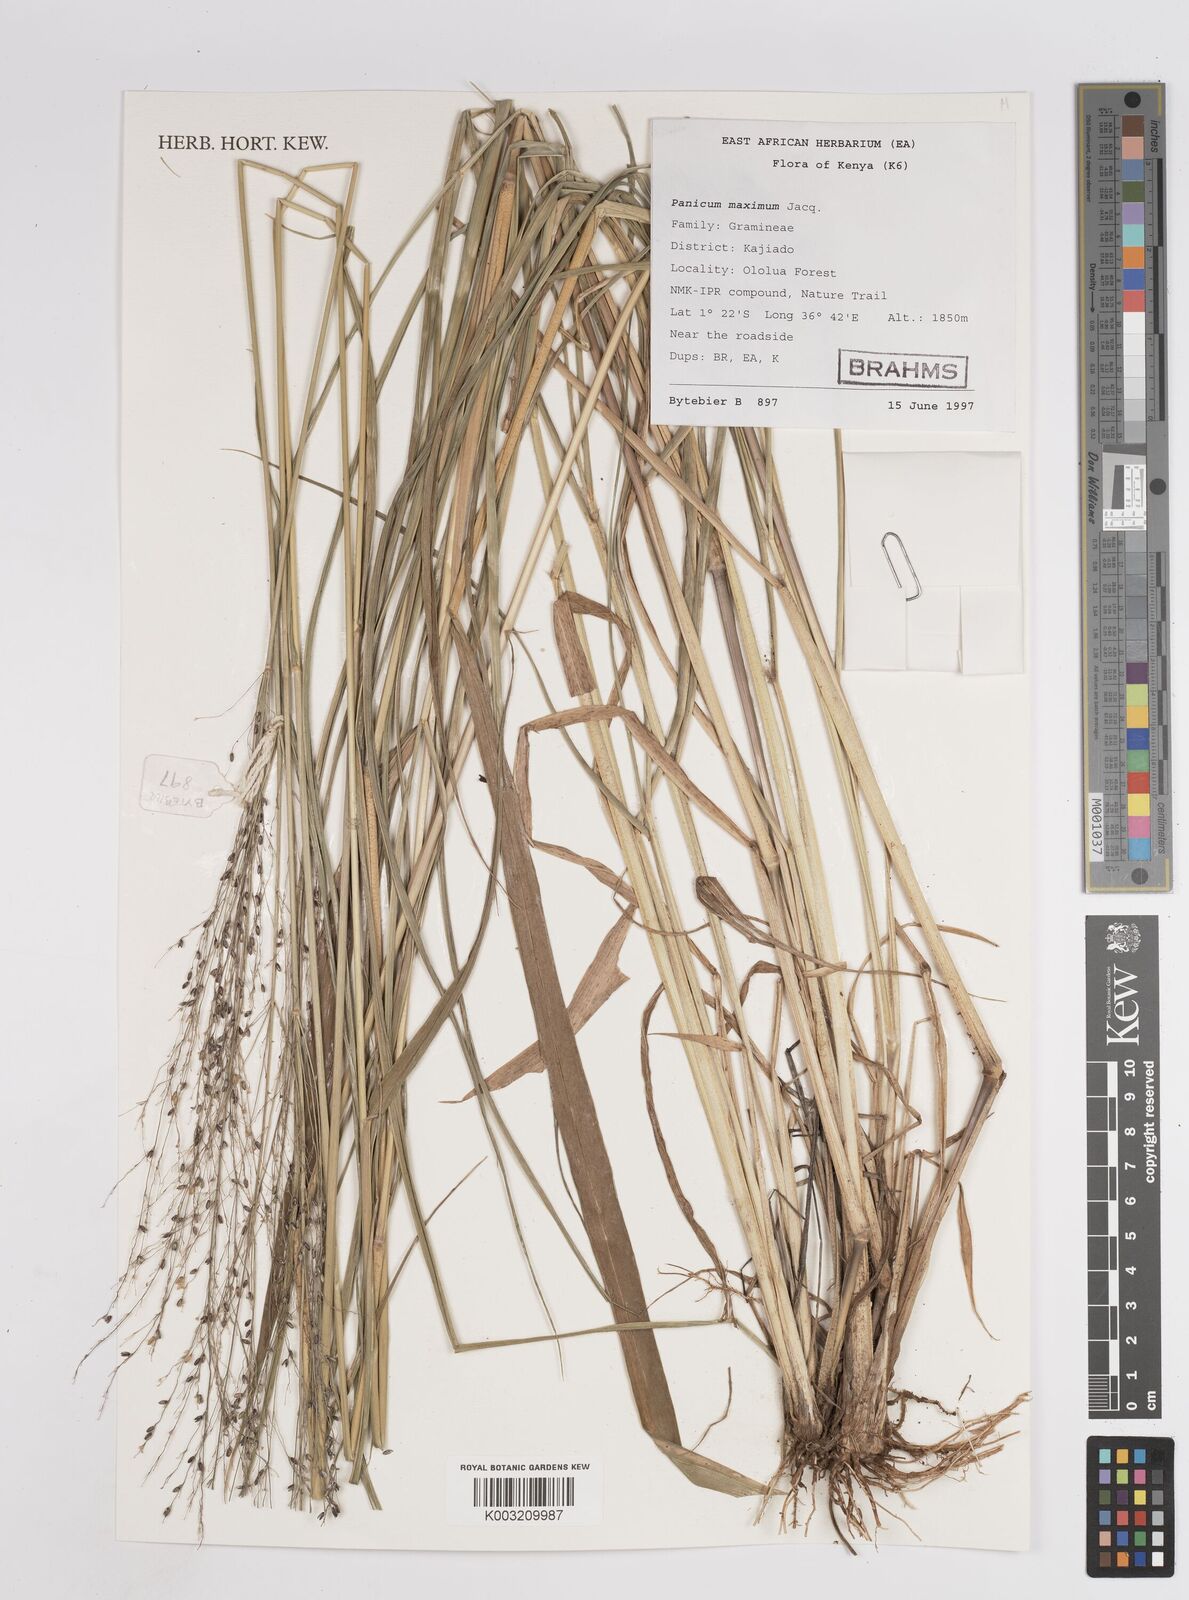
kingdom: Plantae
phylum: Tracheophyta
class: Liliopsida
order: Poales
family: Poaceae
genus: Megathyrsus
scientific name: Megathyrsus maximus
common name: Guineagrass
